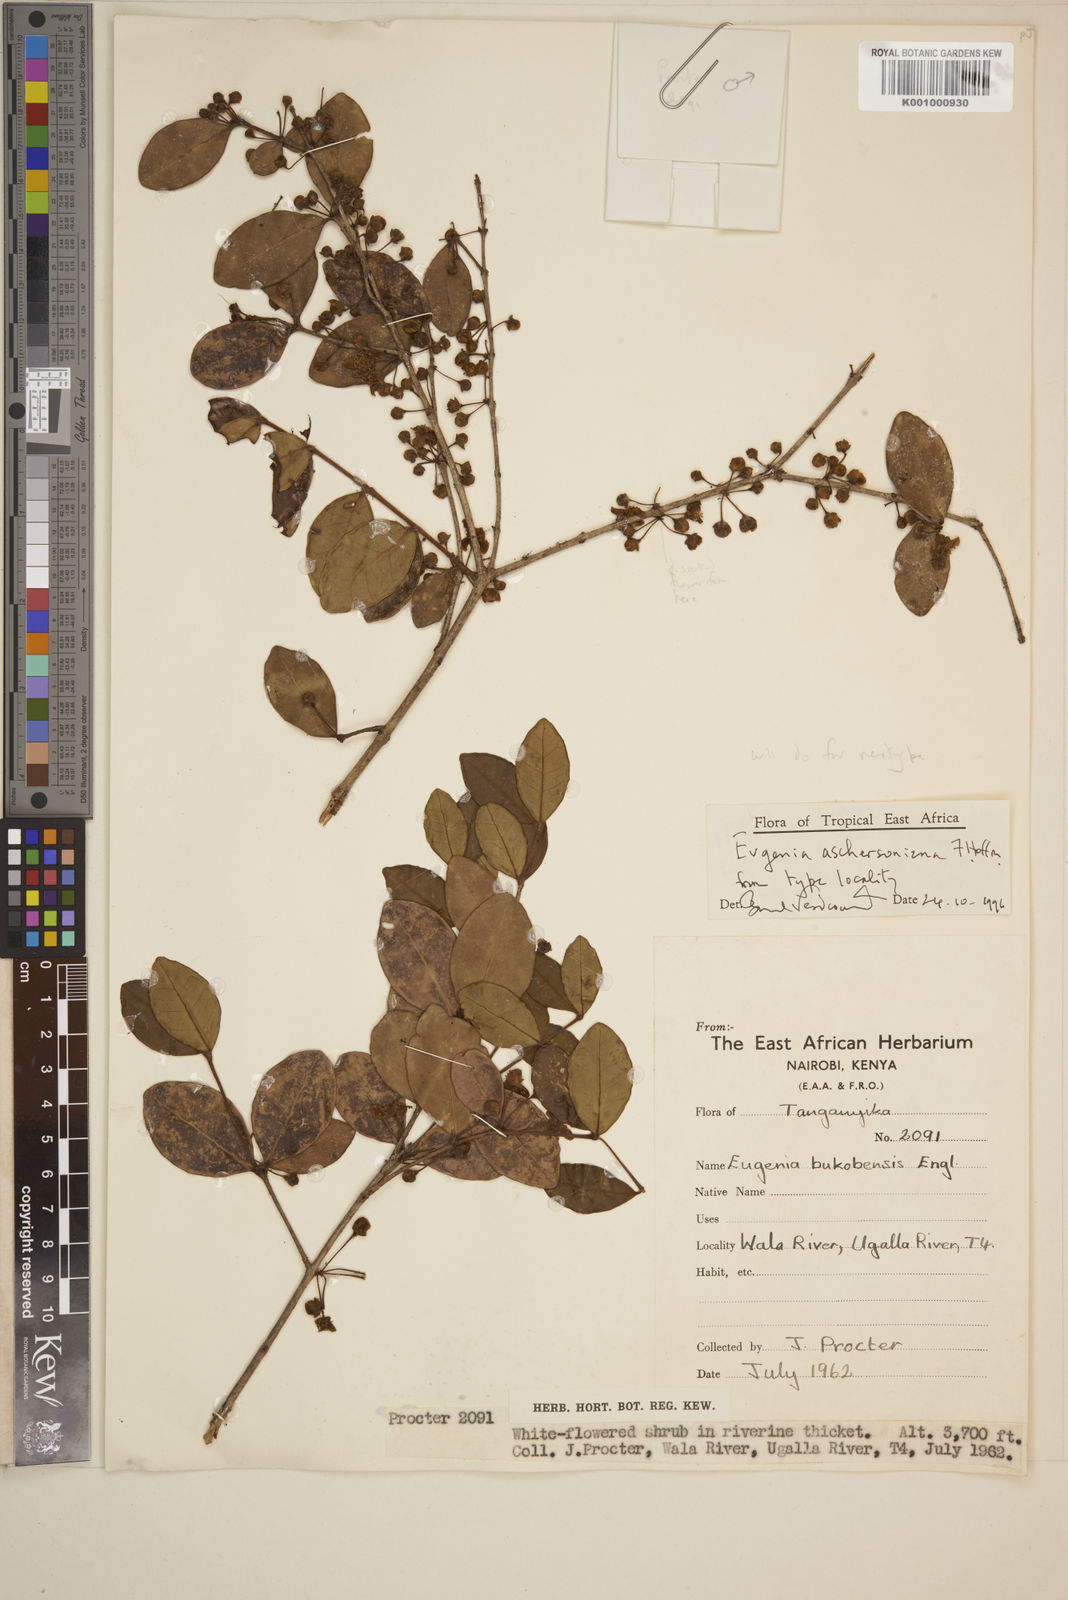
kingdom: Plantae
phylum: Tracheophyta
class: Magnoliopsida
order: Myrtales
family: Myrtaceae
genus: Eugenia
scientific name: Eugenia aschersoniana
